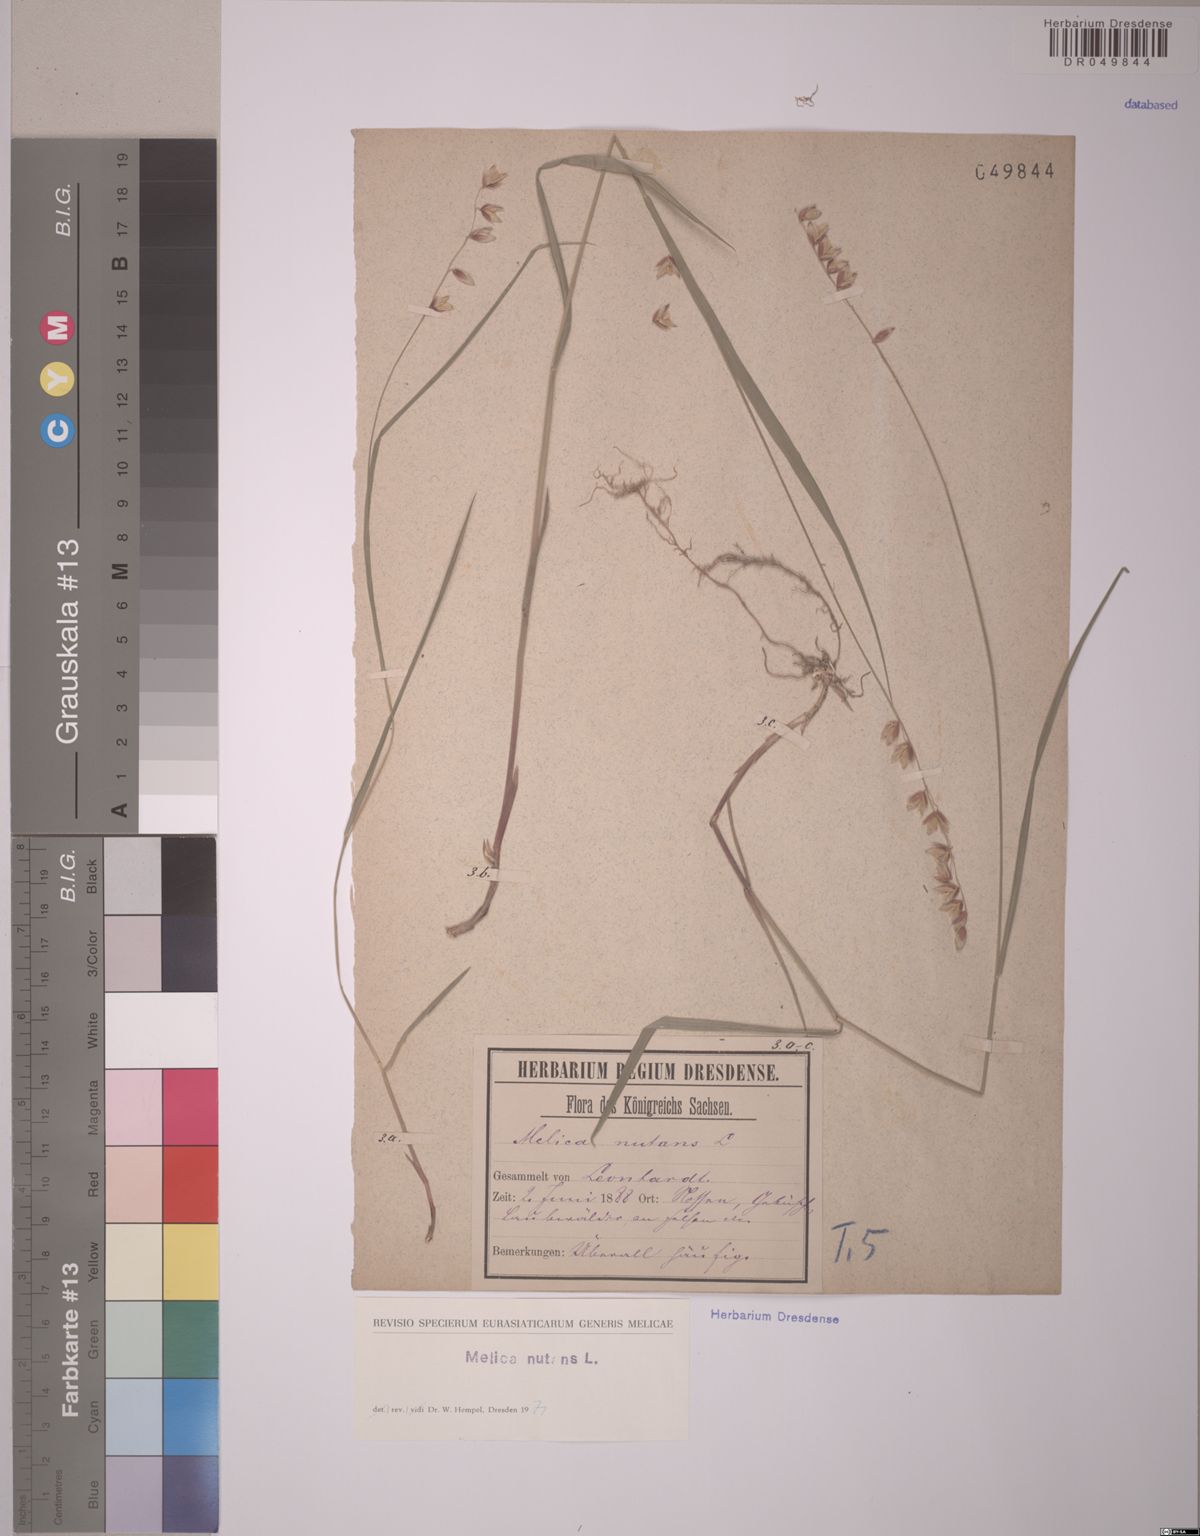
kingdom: Plantae
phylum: Tracheophyta
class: Liliopsida
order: Poales
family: Poaceae
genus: Melica
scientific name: Melica nutans
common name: Mountain melick
